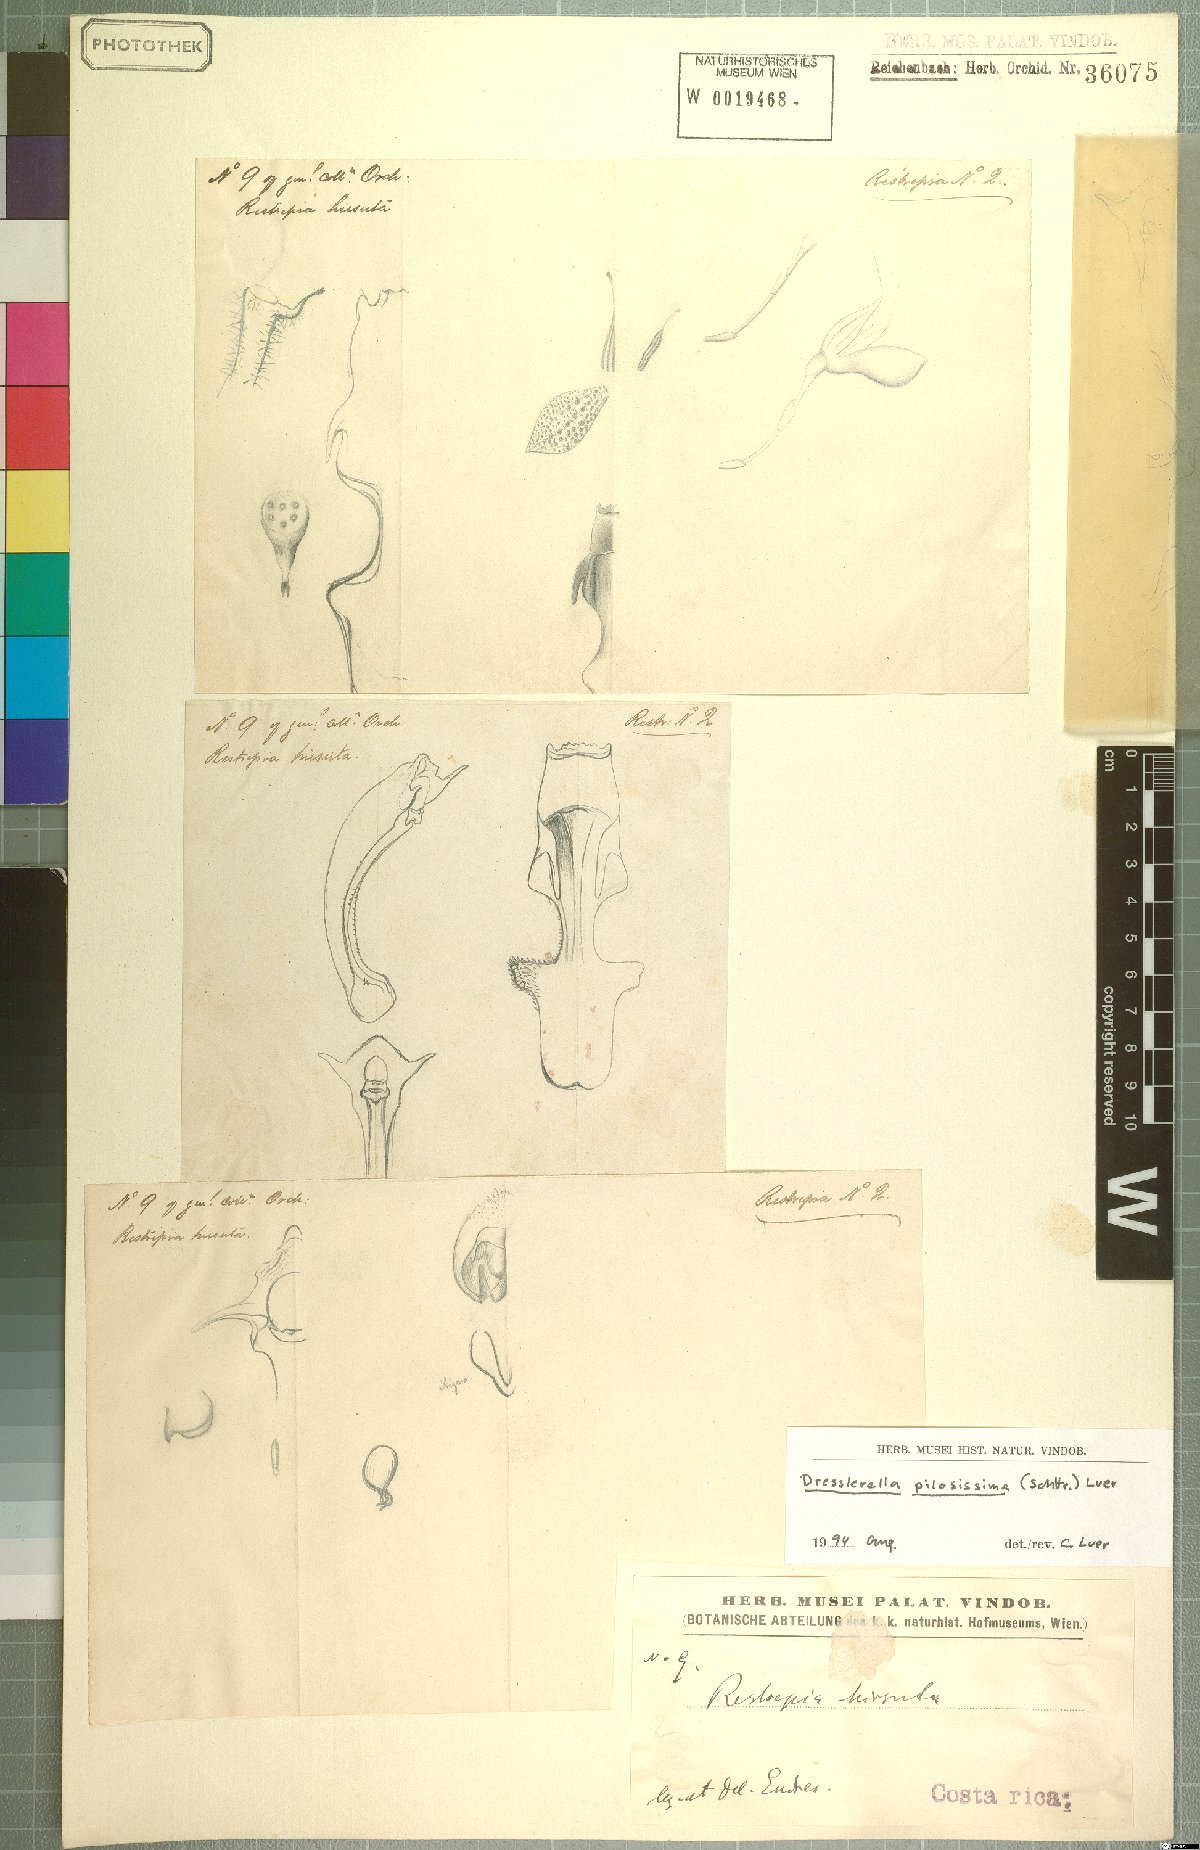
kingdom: Plantae
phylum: Tracheophyta
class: Liliopsida
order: Asparagales
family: Orchidaceae
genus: Dresslerella
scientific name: Dresslerella pilosissima
